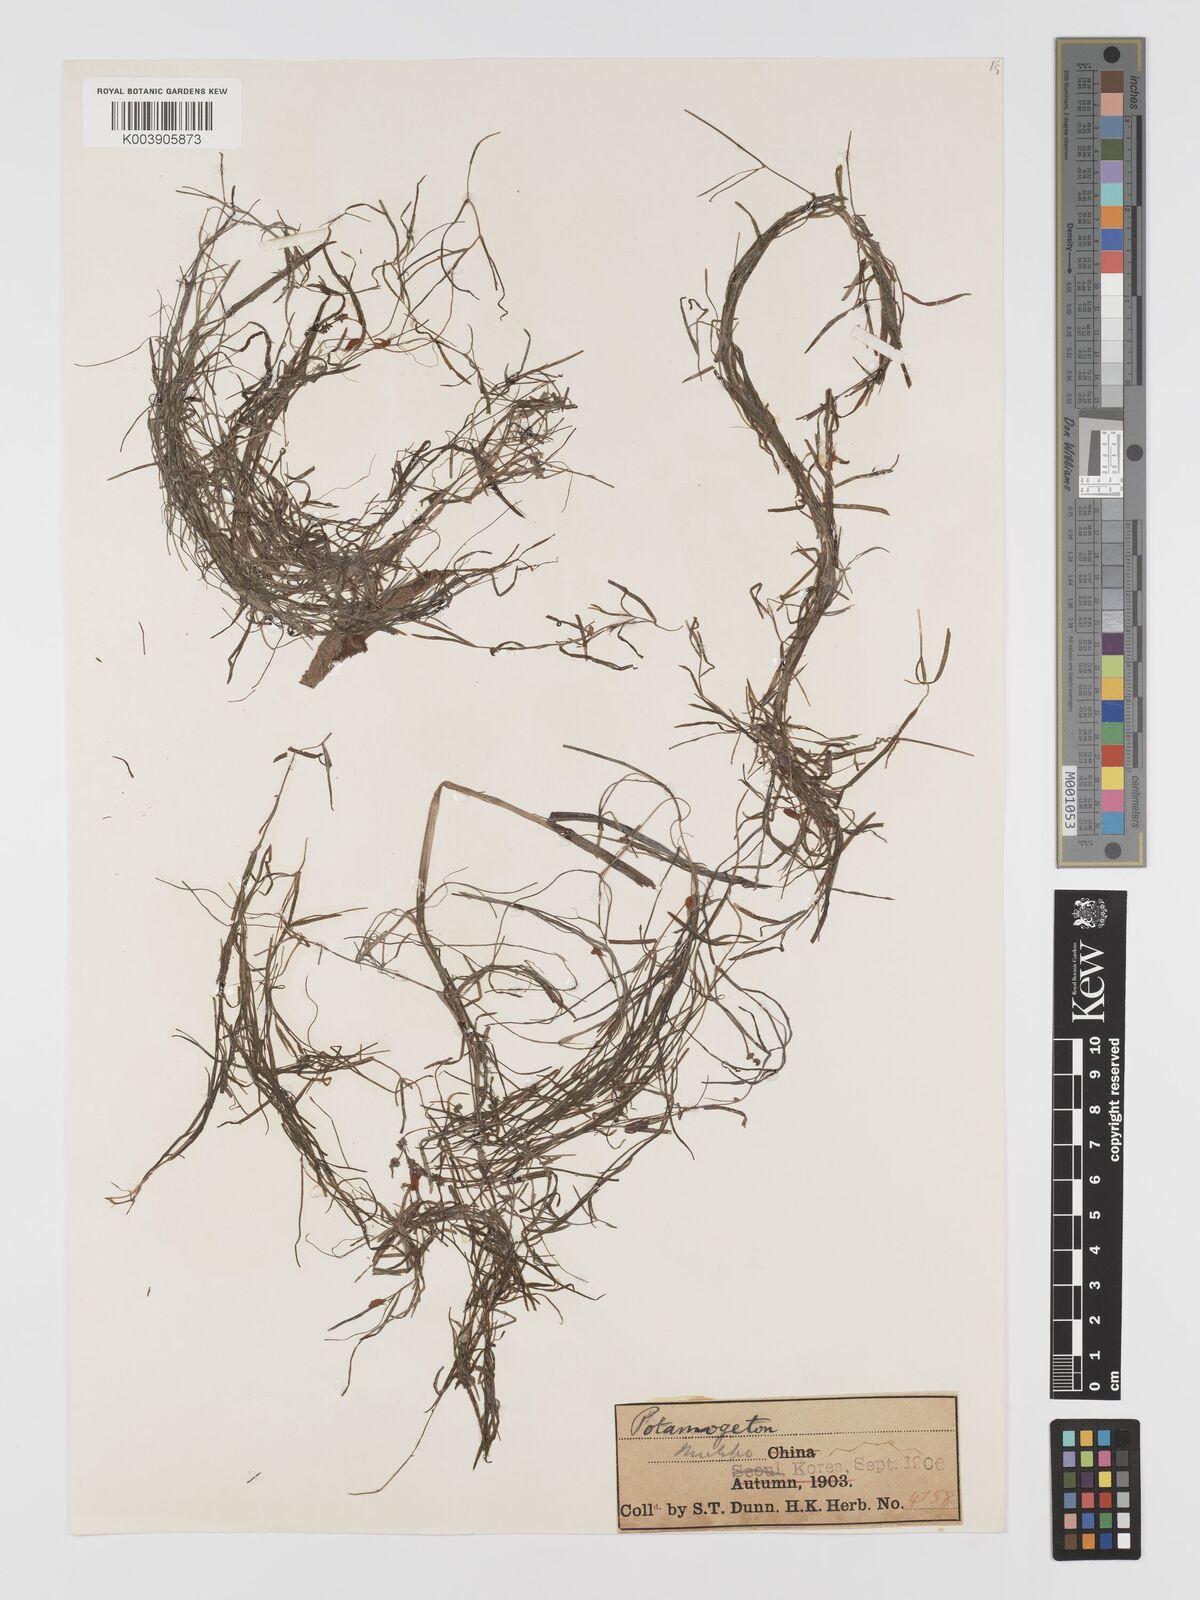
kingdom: Plantae
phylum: Tracheophyta
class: Liliopsida
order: Alismatales
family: Potamogetonaceae
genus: Potamogeton
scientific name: Potamogeton octandrus
